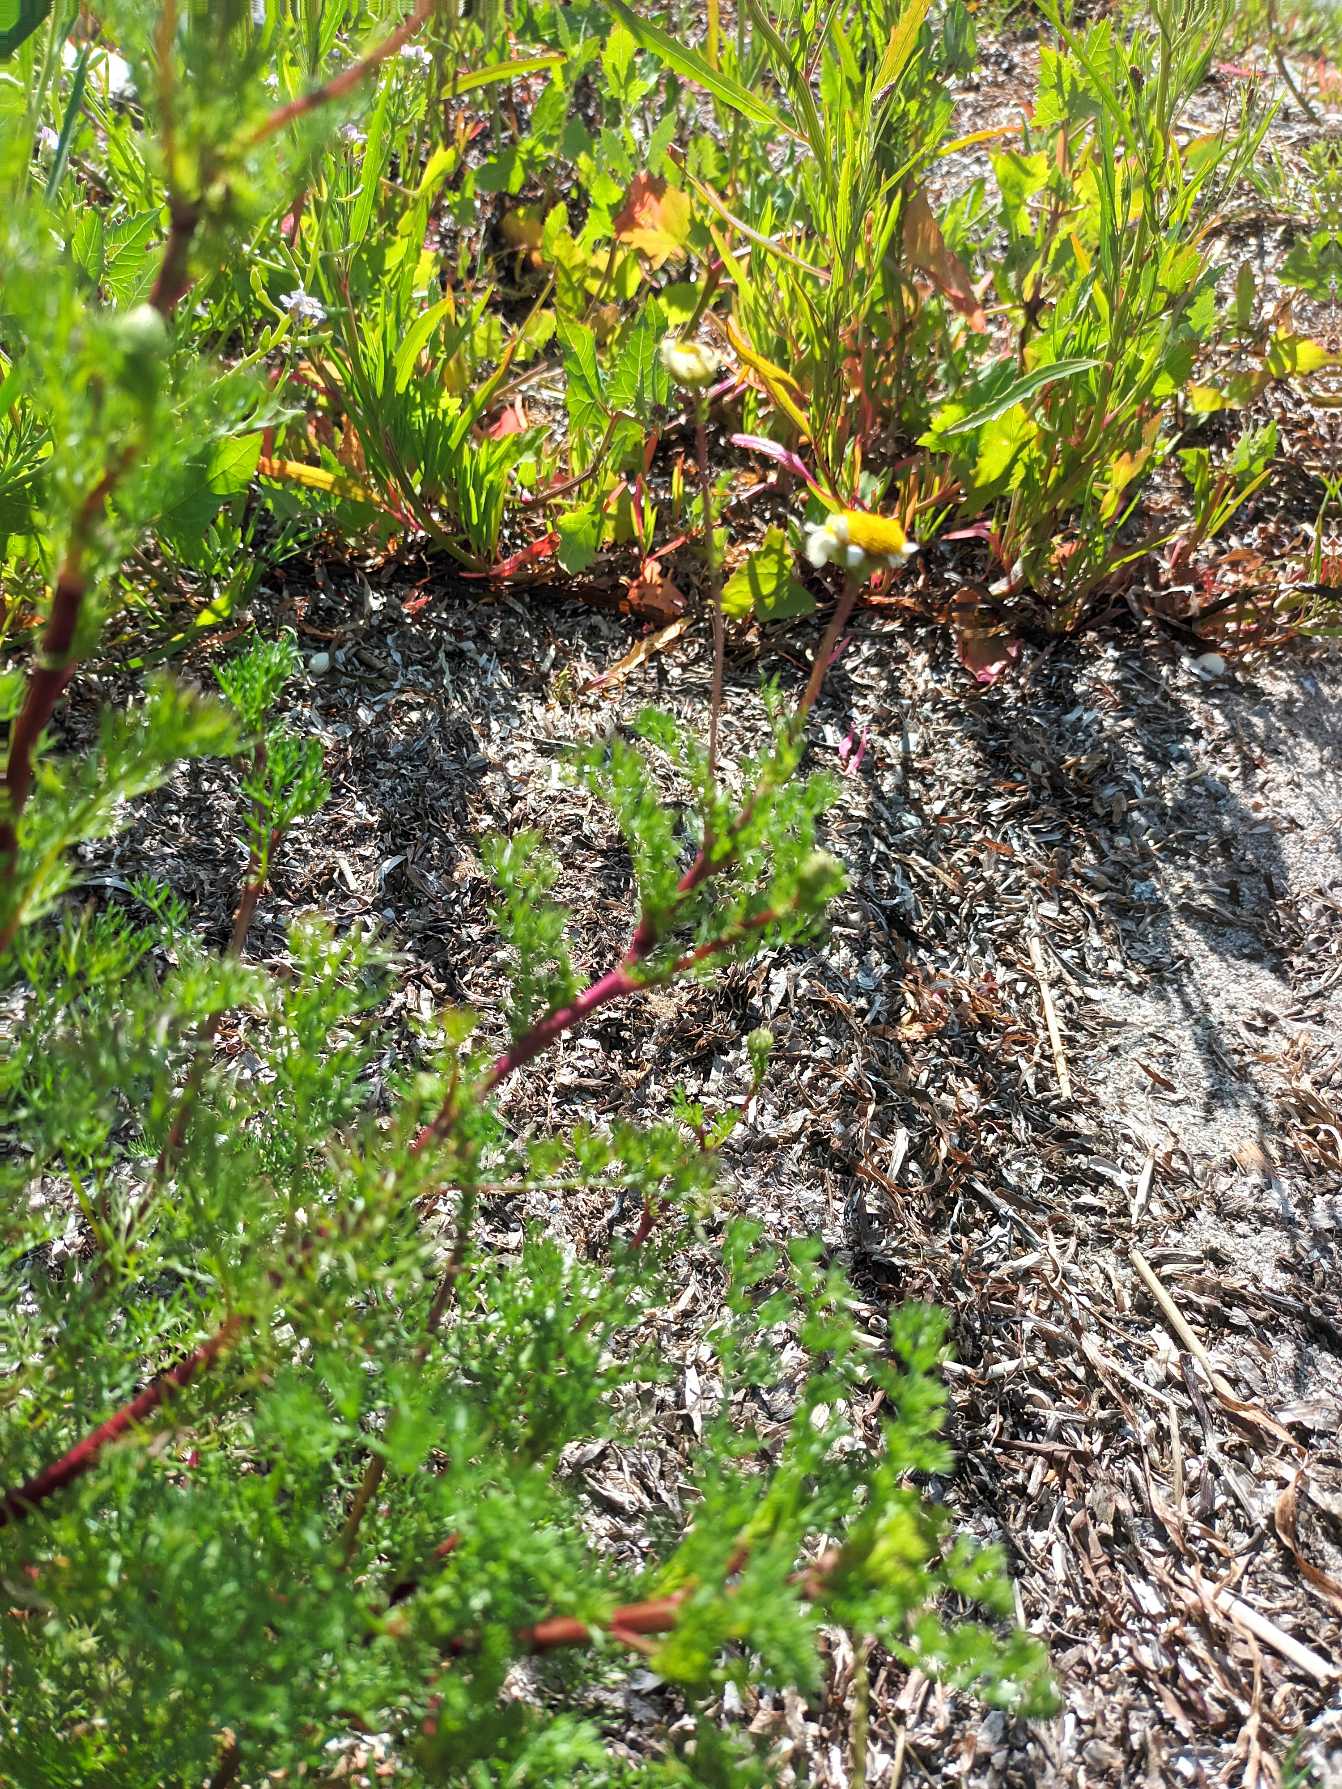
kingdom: Plantae
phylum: Tracheophyta
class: Magnoliopsida
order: Asterales
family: Asteraceae
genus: Tripleurospermum
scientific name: Tripleurospermum maritimum
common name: Strand-kamille
